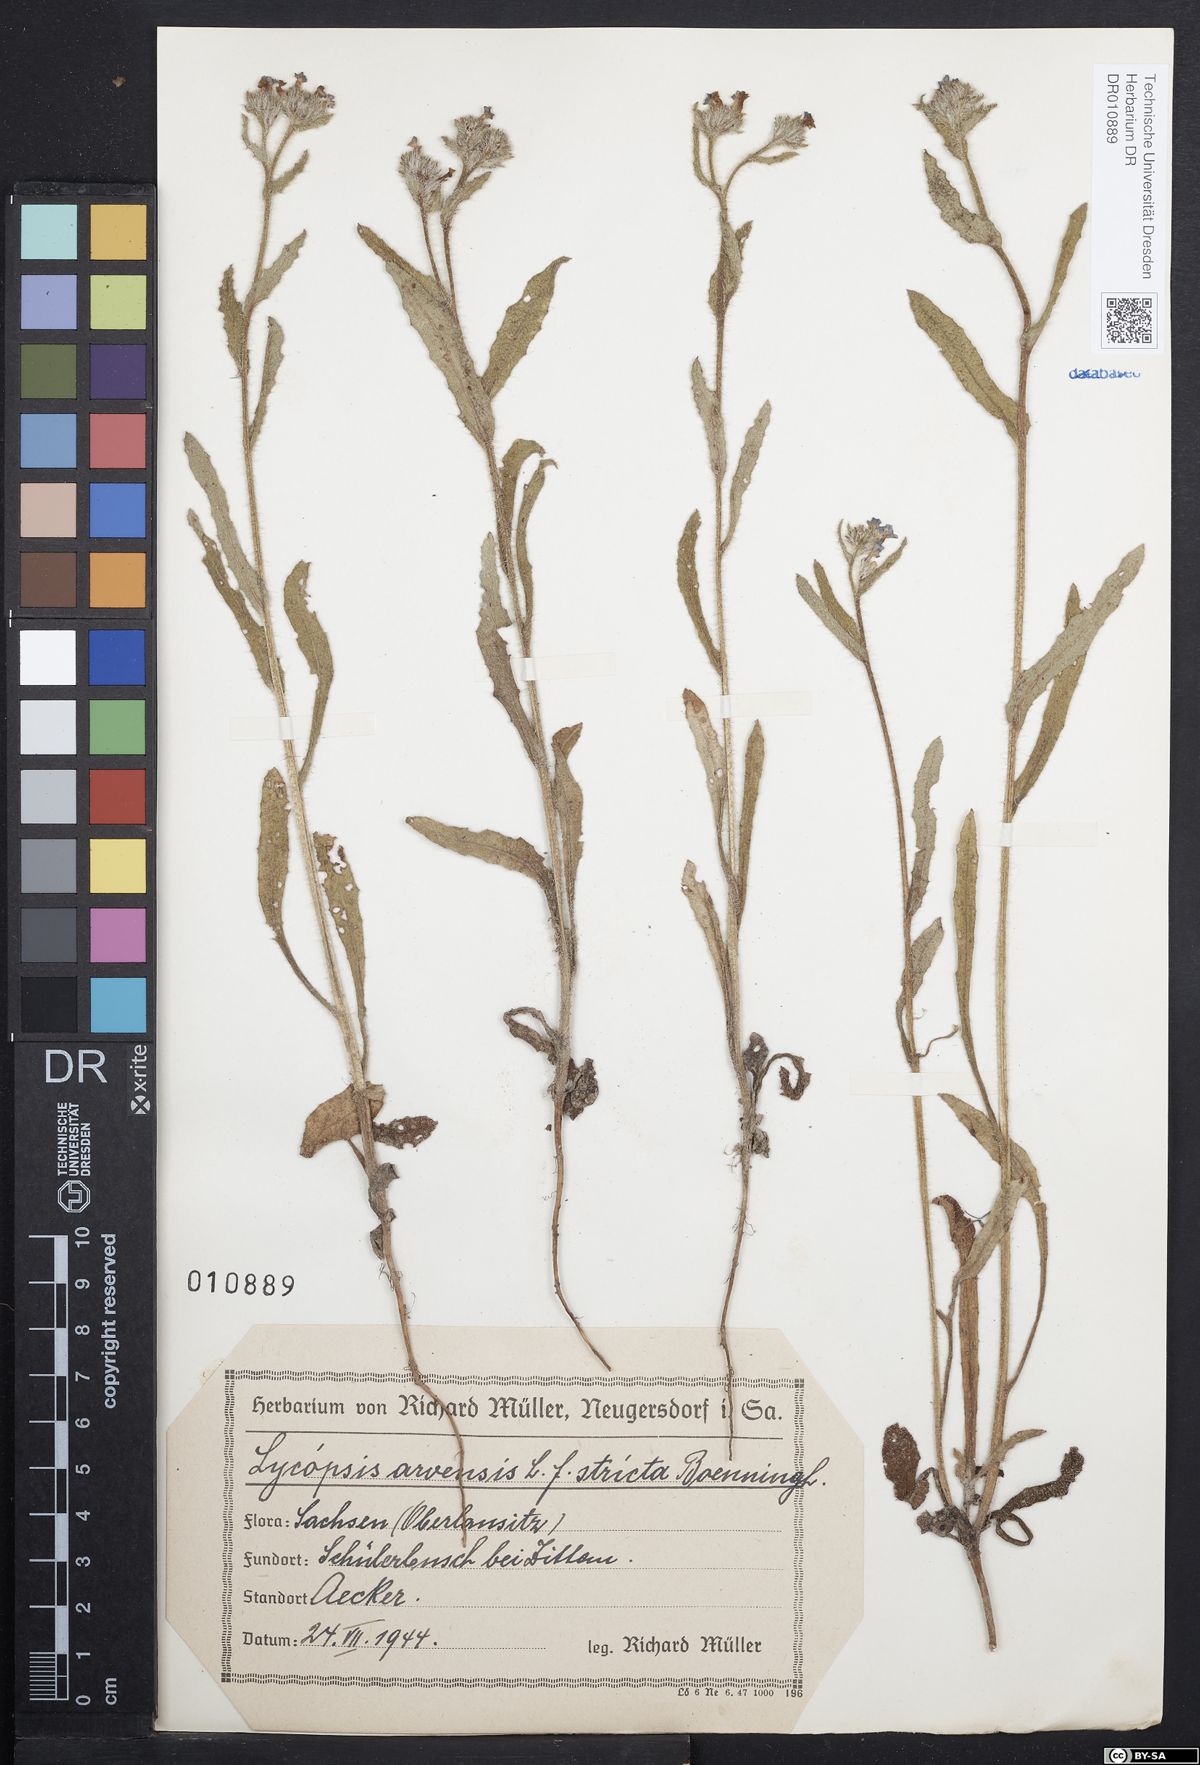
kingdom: Plantae
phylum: Tracheophyta
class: Magnoliopsida
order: Boraginales
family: Boraginaceae
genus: Lycopsis
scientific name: Lycopsis arvensis
